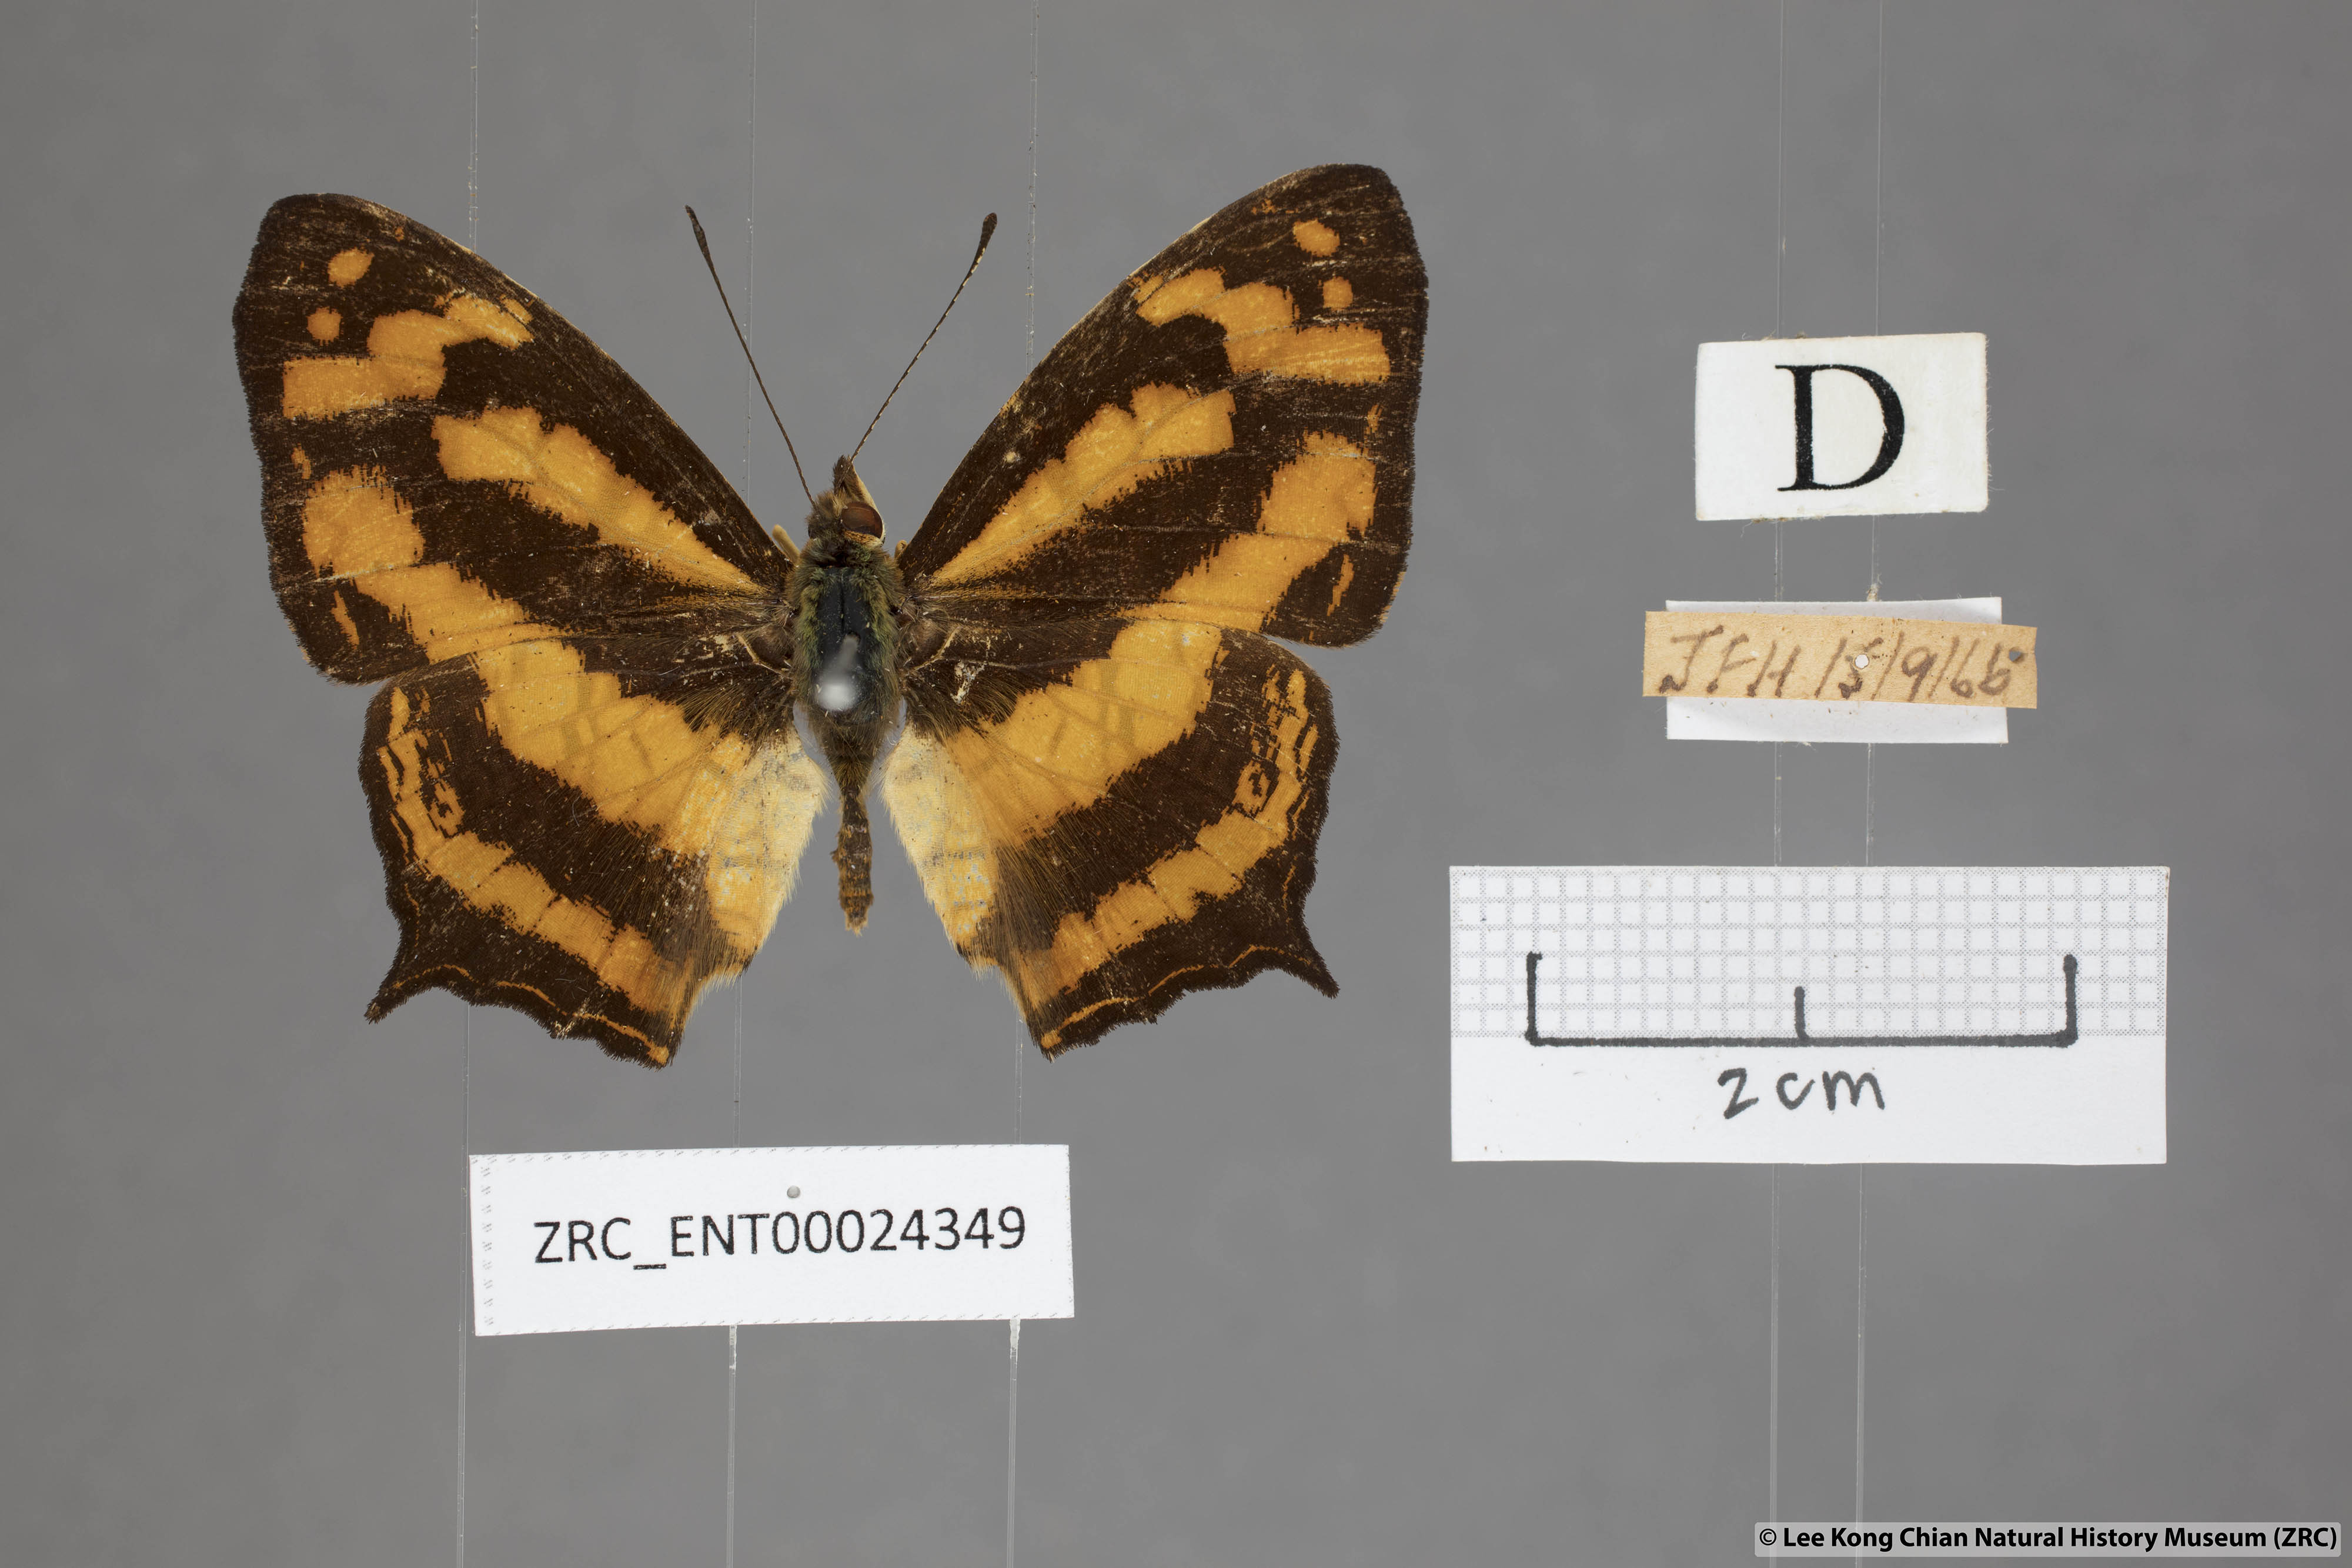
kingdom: Animalia
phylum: Arthropoda
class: Insecta
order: Lepidoptera
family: Nymphalidae
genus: Symbrenthia
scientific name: Symbrenthia hypatia
